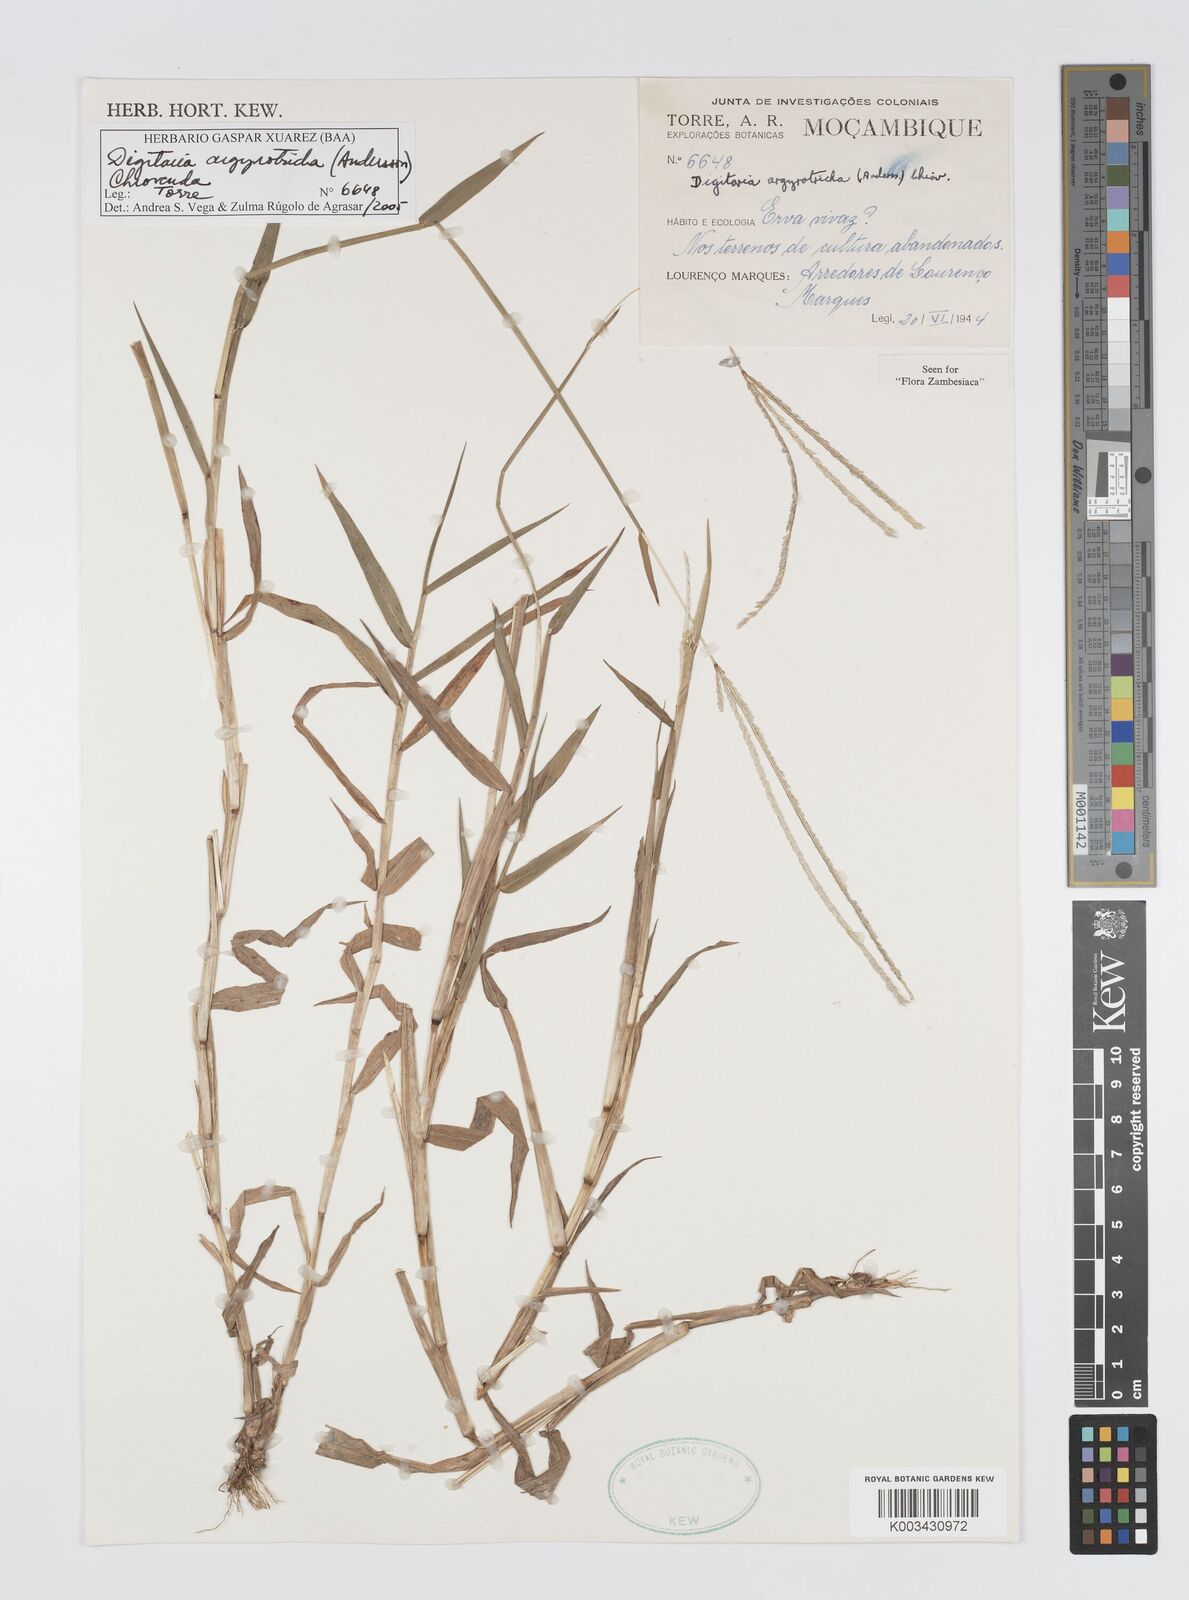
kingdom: Plantae
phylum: Tracheophyta
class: Liliopsida
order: Poales
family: Poaceae
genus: Digitaria
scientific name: Digitaria argyrotricha
